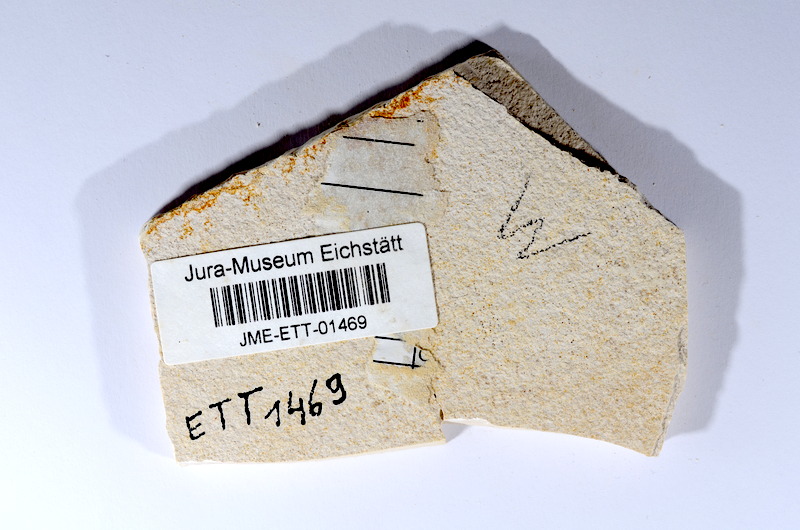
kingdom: Animalia
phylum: Chordata
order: Salmoniformes
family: Orthogonikleithridae
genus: Orthogonikleithrus
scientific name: Orthogonikleithrus hoelli
